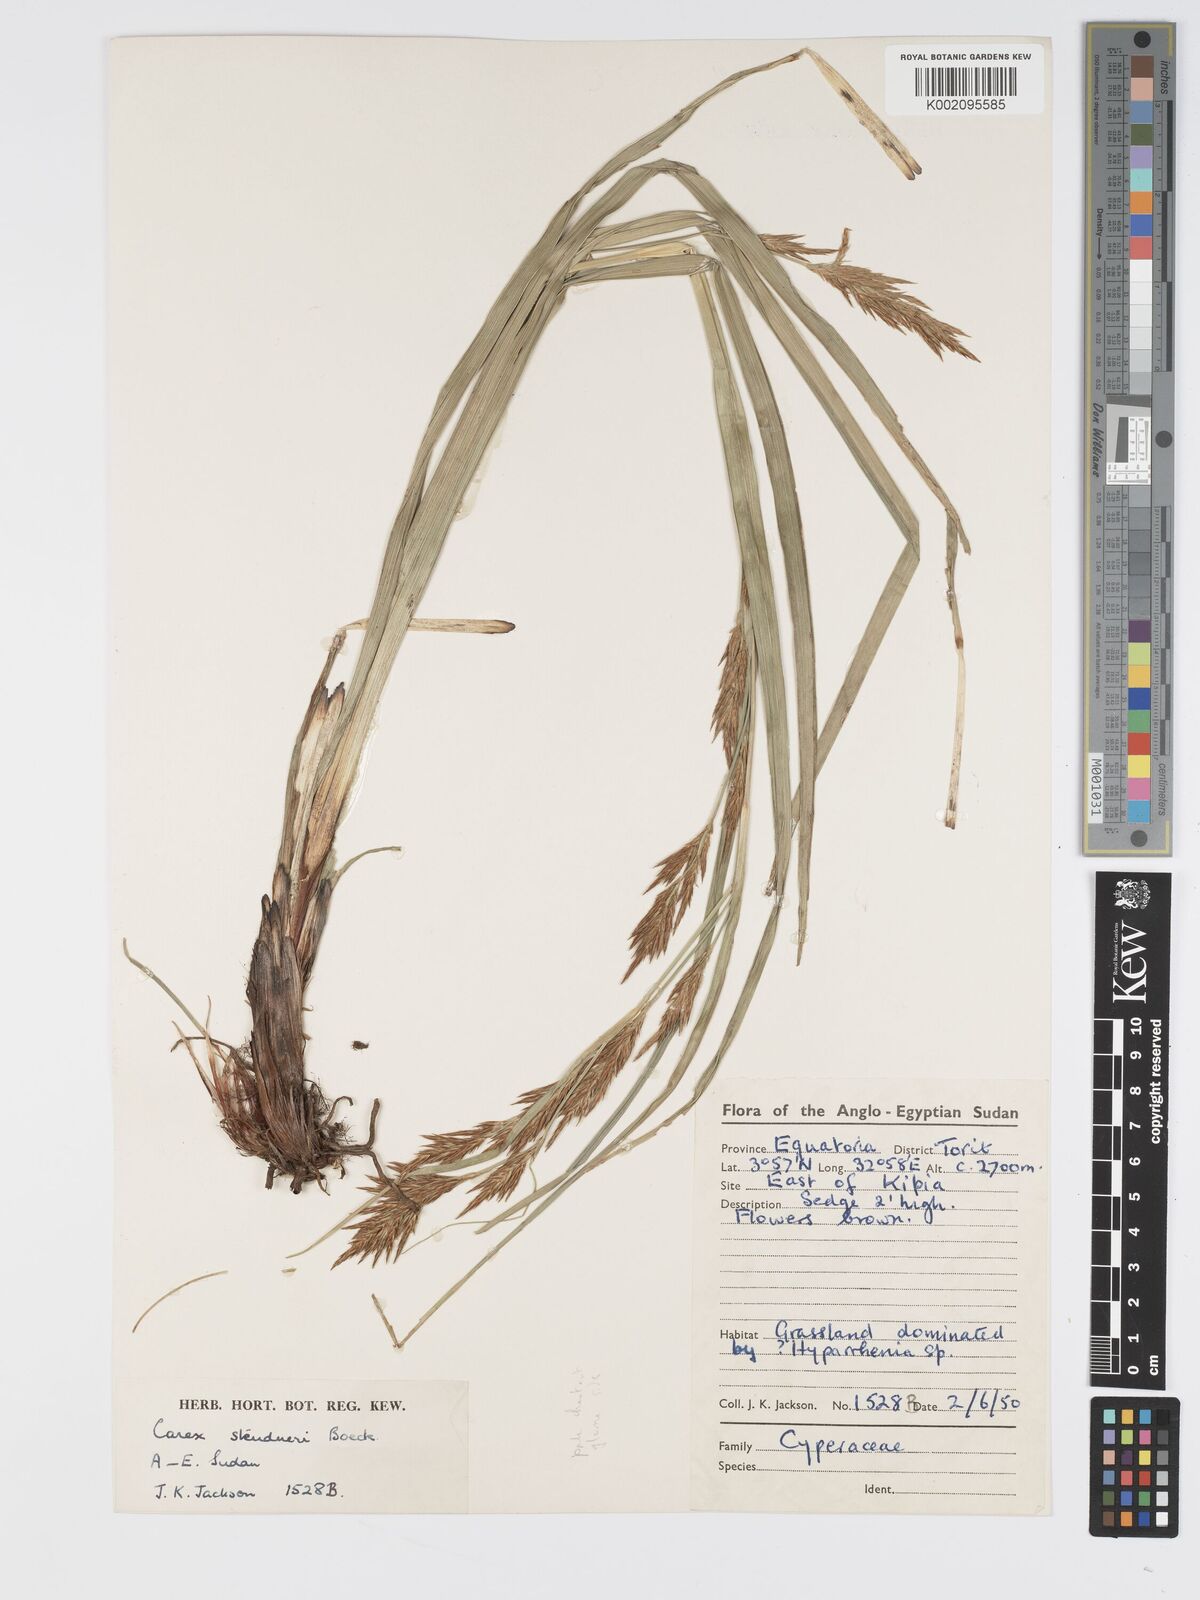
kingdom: Plantae
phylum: Tracheophyta
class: Liliopsida
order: Poales
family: Cyperaceae
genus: Carex
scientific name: Carex steudneri
